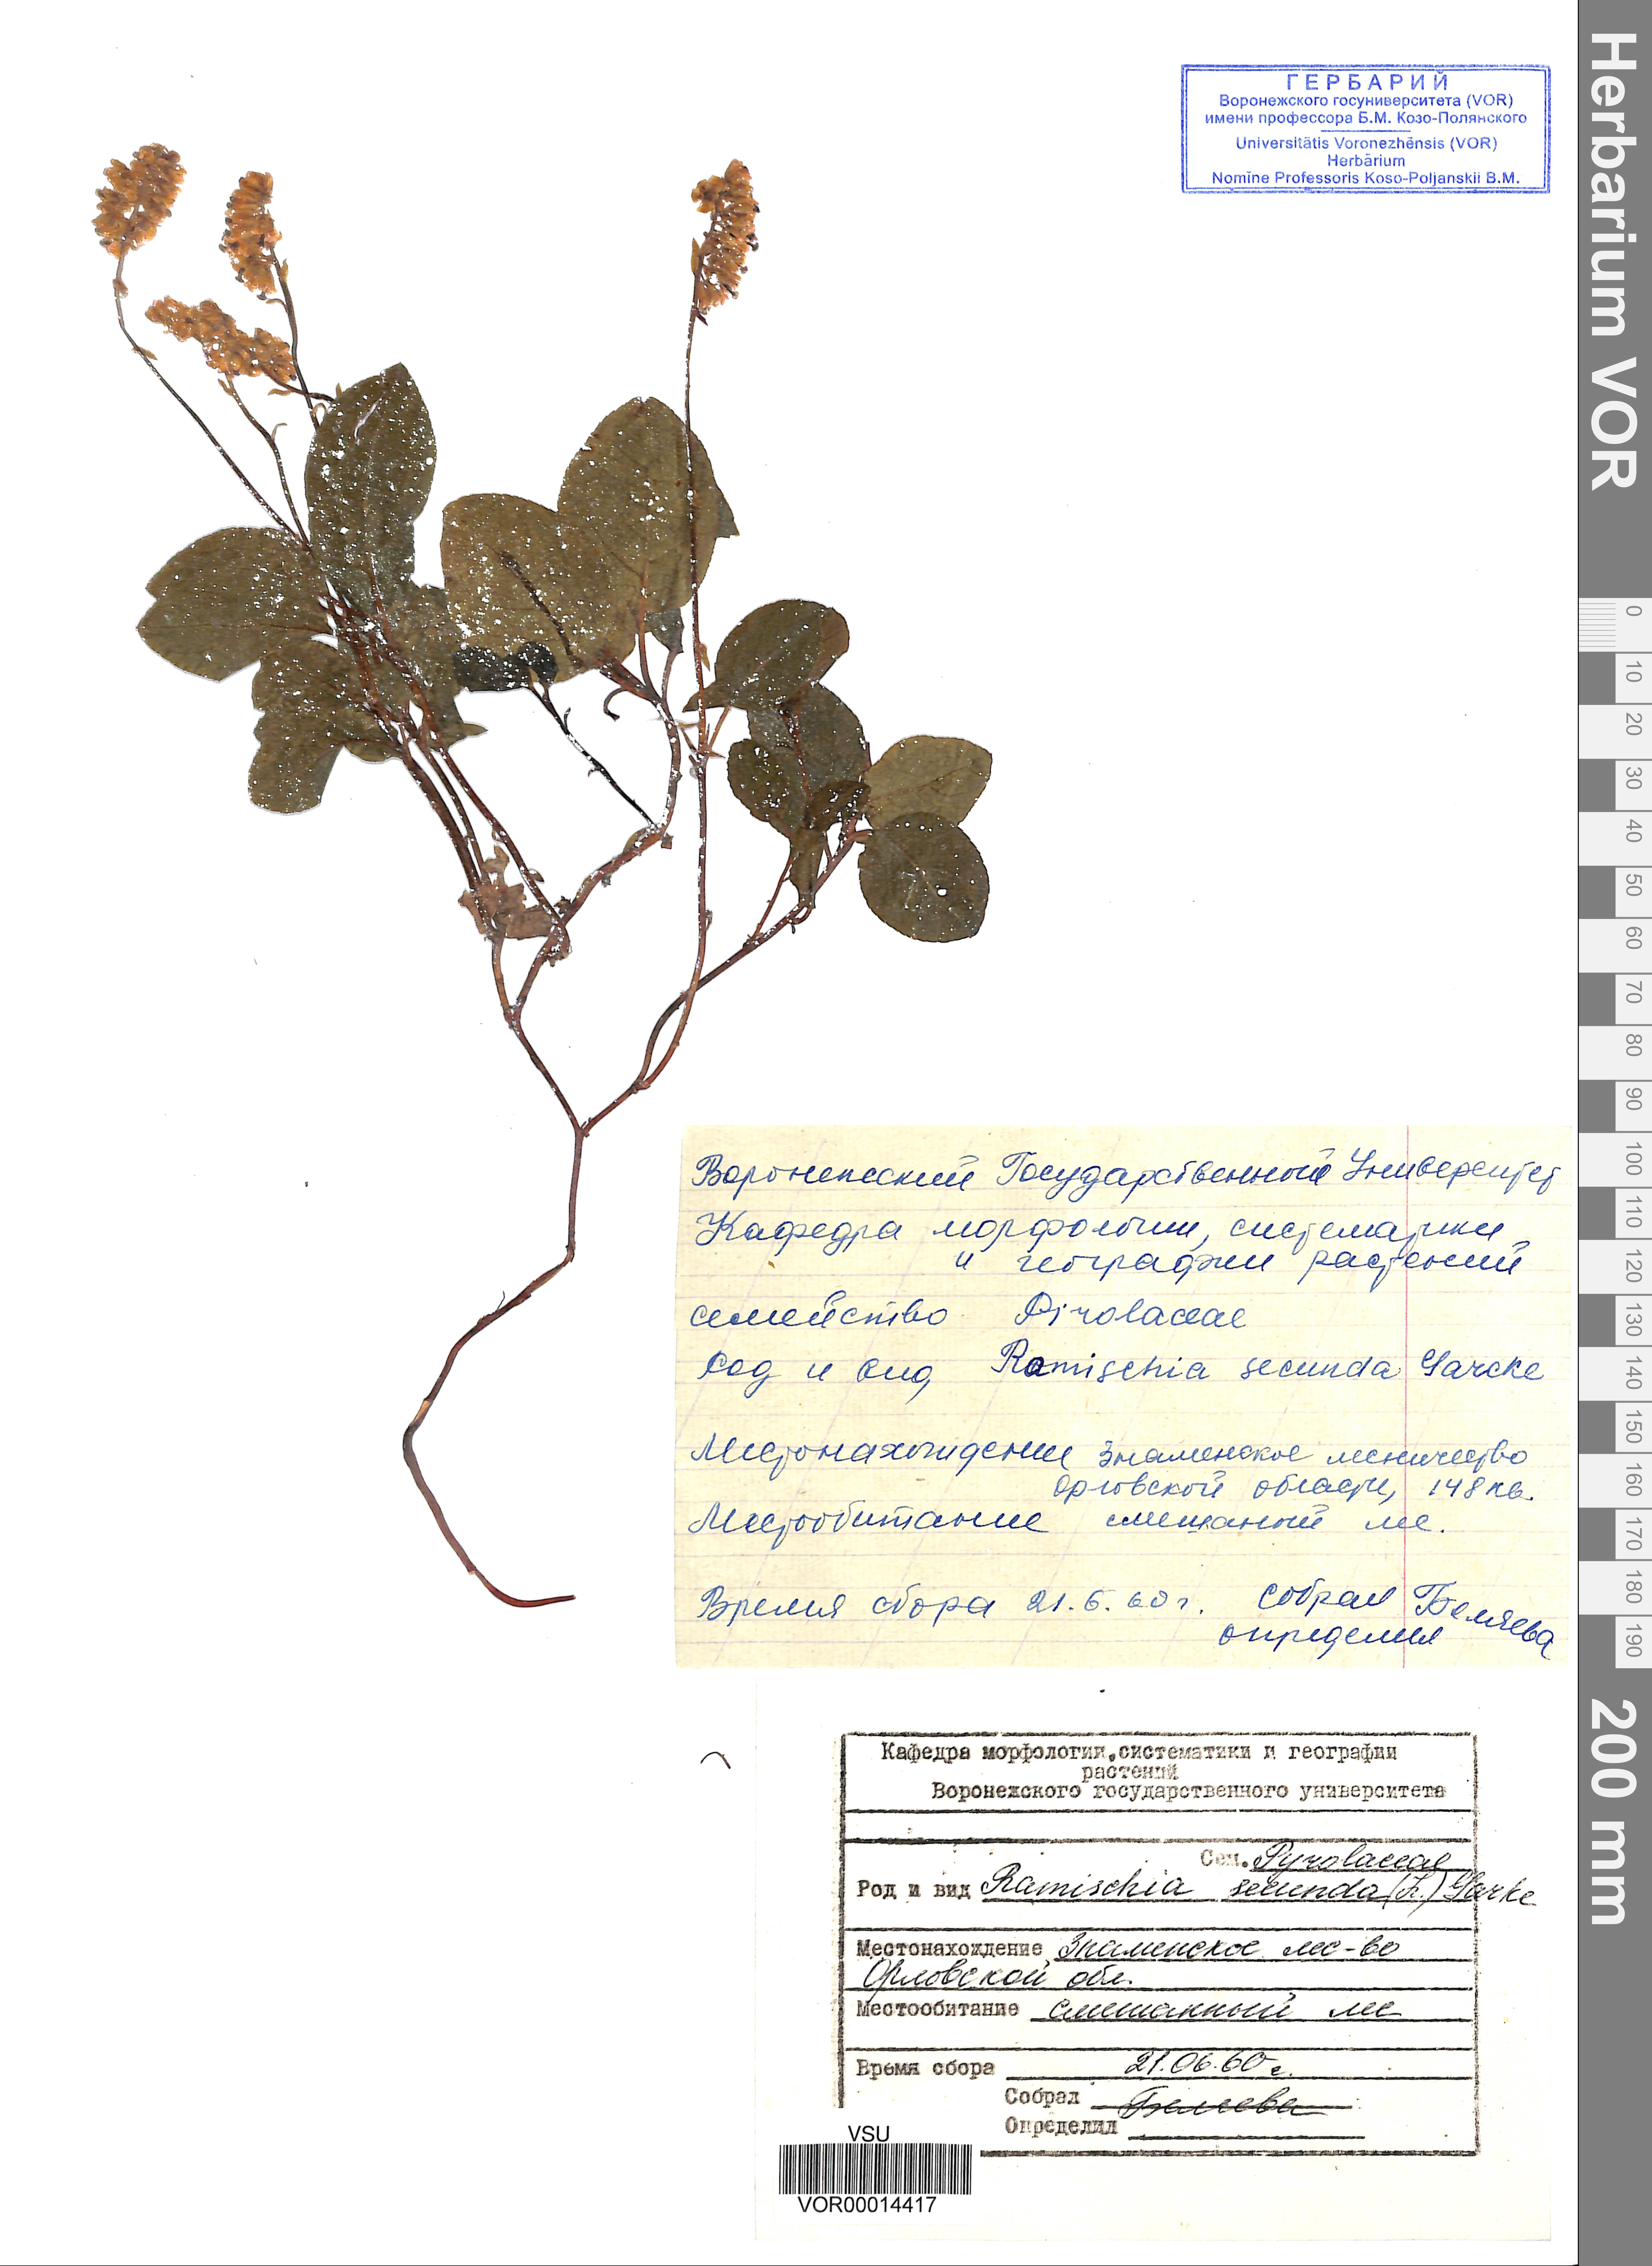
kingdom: Plantae
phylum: Tracheophyta
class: Magnoliopsida
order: Ericales
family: Ericaceae
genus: Orthilia
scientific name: Orthilia secunda
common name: One-sided orthilia
